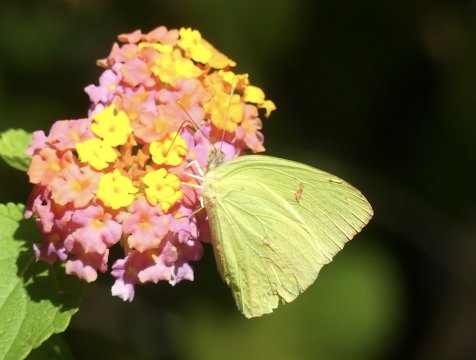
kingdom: Animalia
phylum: Arthropoda
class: Insecta
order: Lepidoptera
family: Pieridae
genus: Phoebis
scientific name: Phoebis sennae
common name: Cloudless Sulphur
